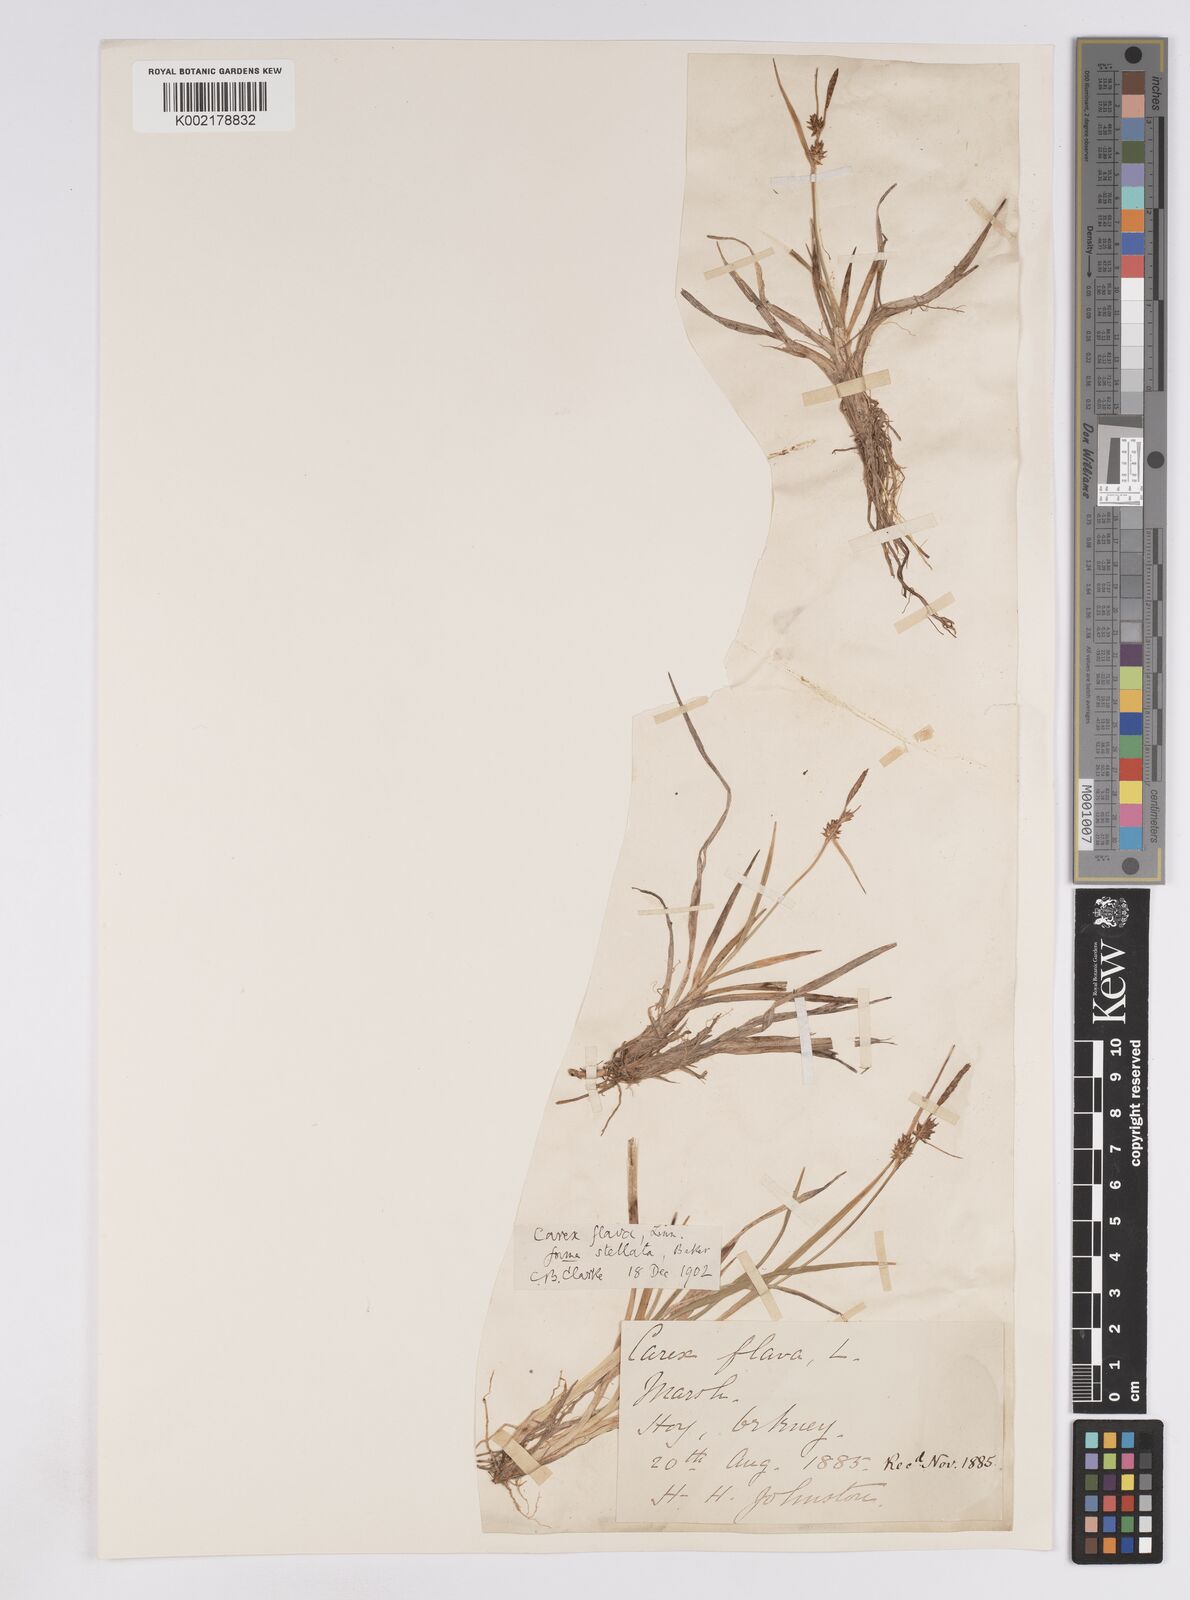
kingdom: Plantae
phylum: Tracheophyta
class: Liliopsida
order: Poales
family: Cyperaceae
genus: Carex
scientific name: Carex lepidocarpa
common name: Long-stalked yellow-sedge
